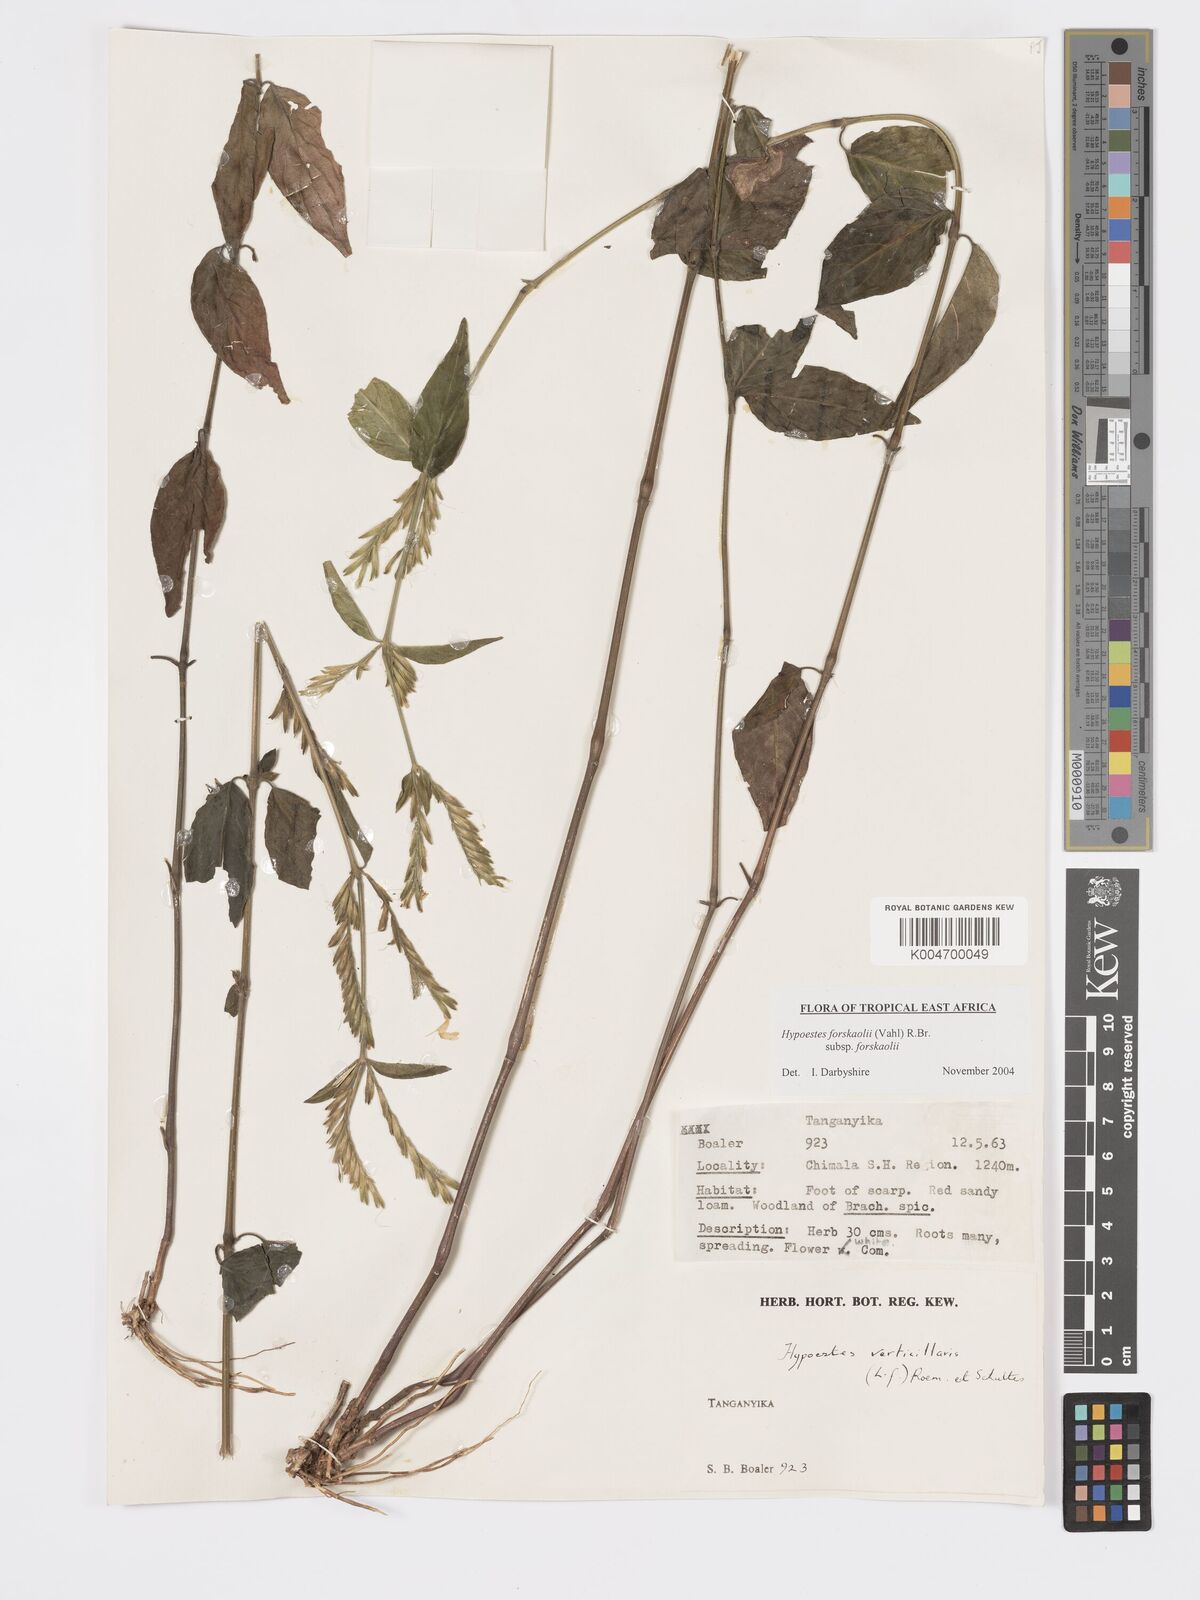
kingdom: Plantae
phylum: Tracheophyta
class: Magnoliopsida
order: Lamiales
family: Acanthaceae
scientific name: Acanthaceae
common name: Acanthaceae
